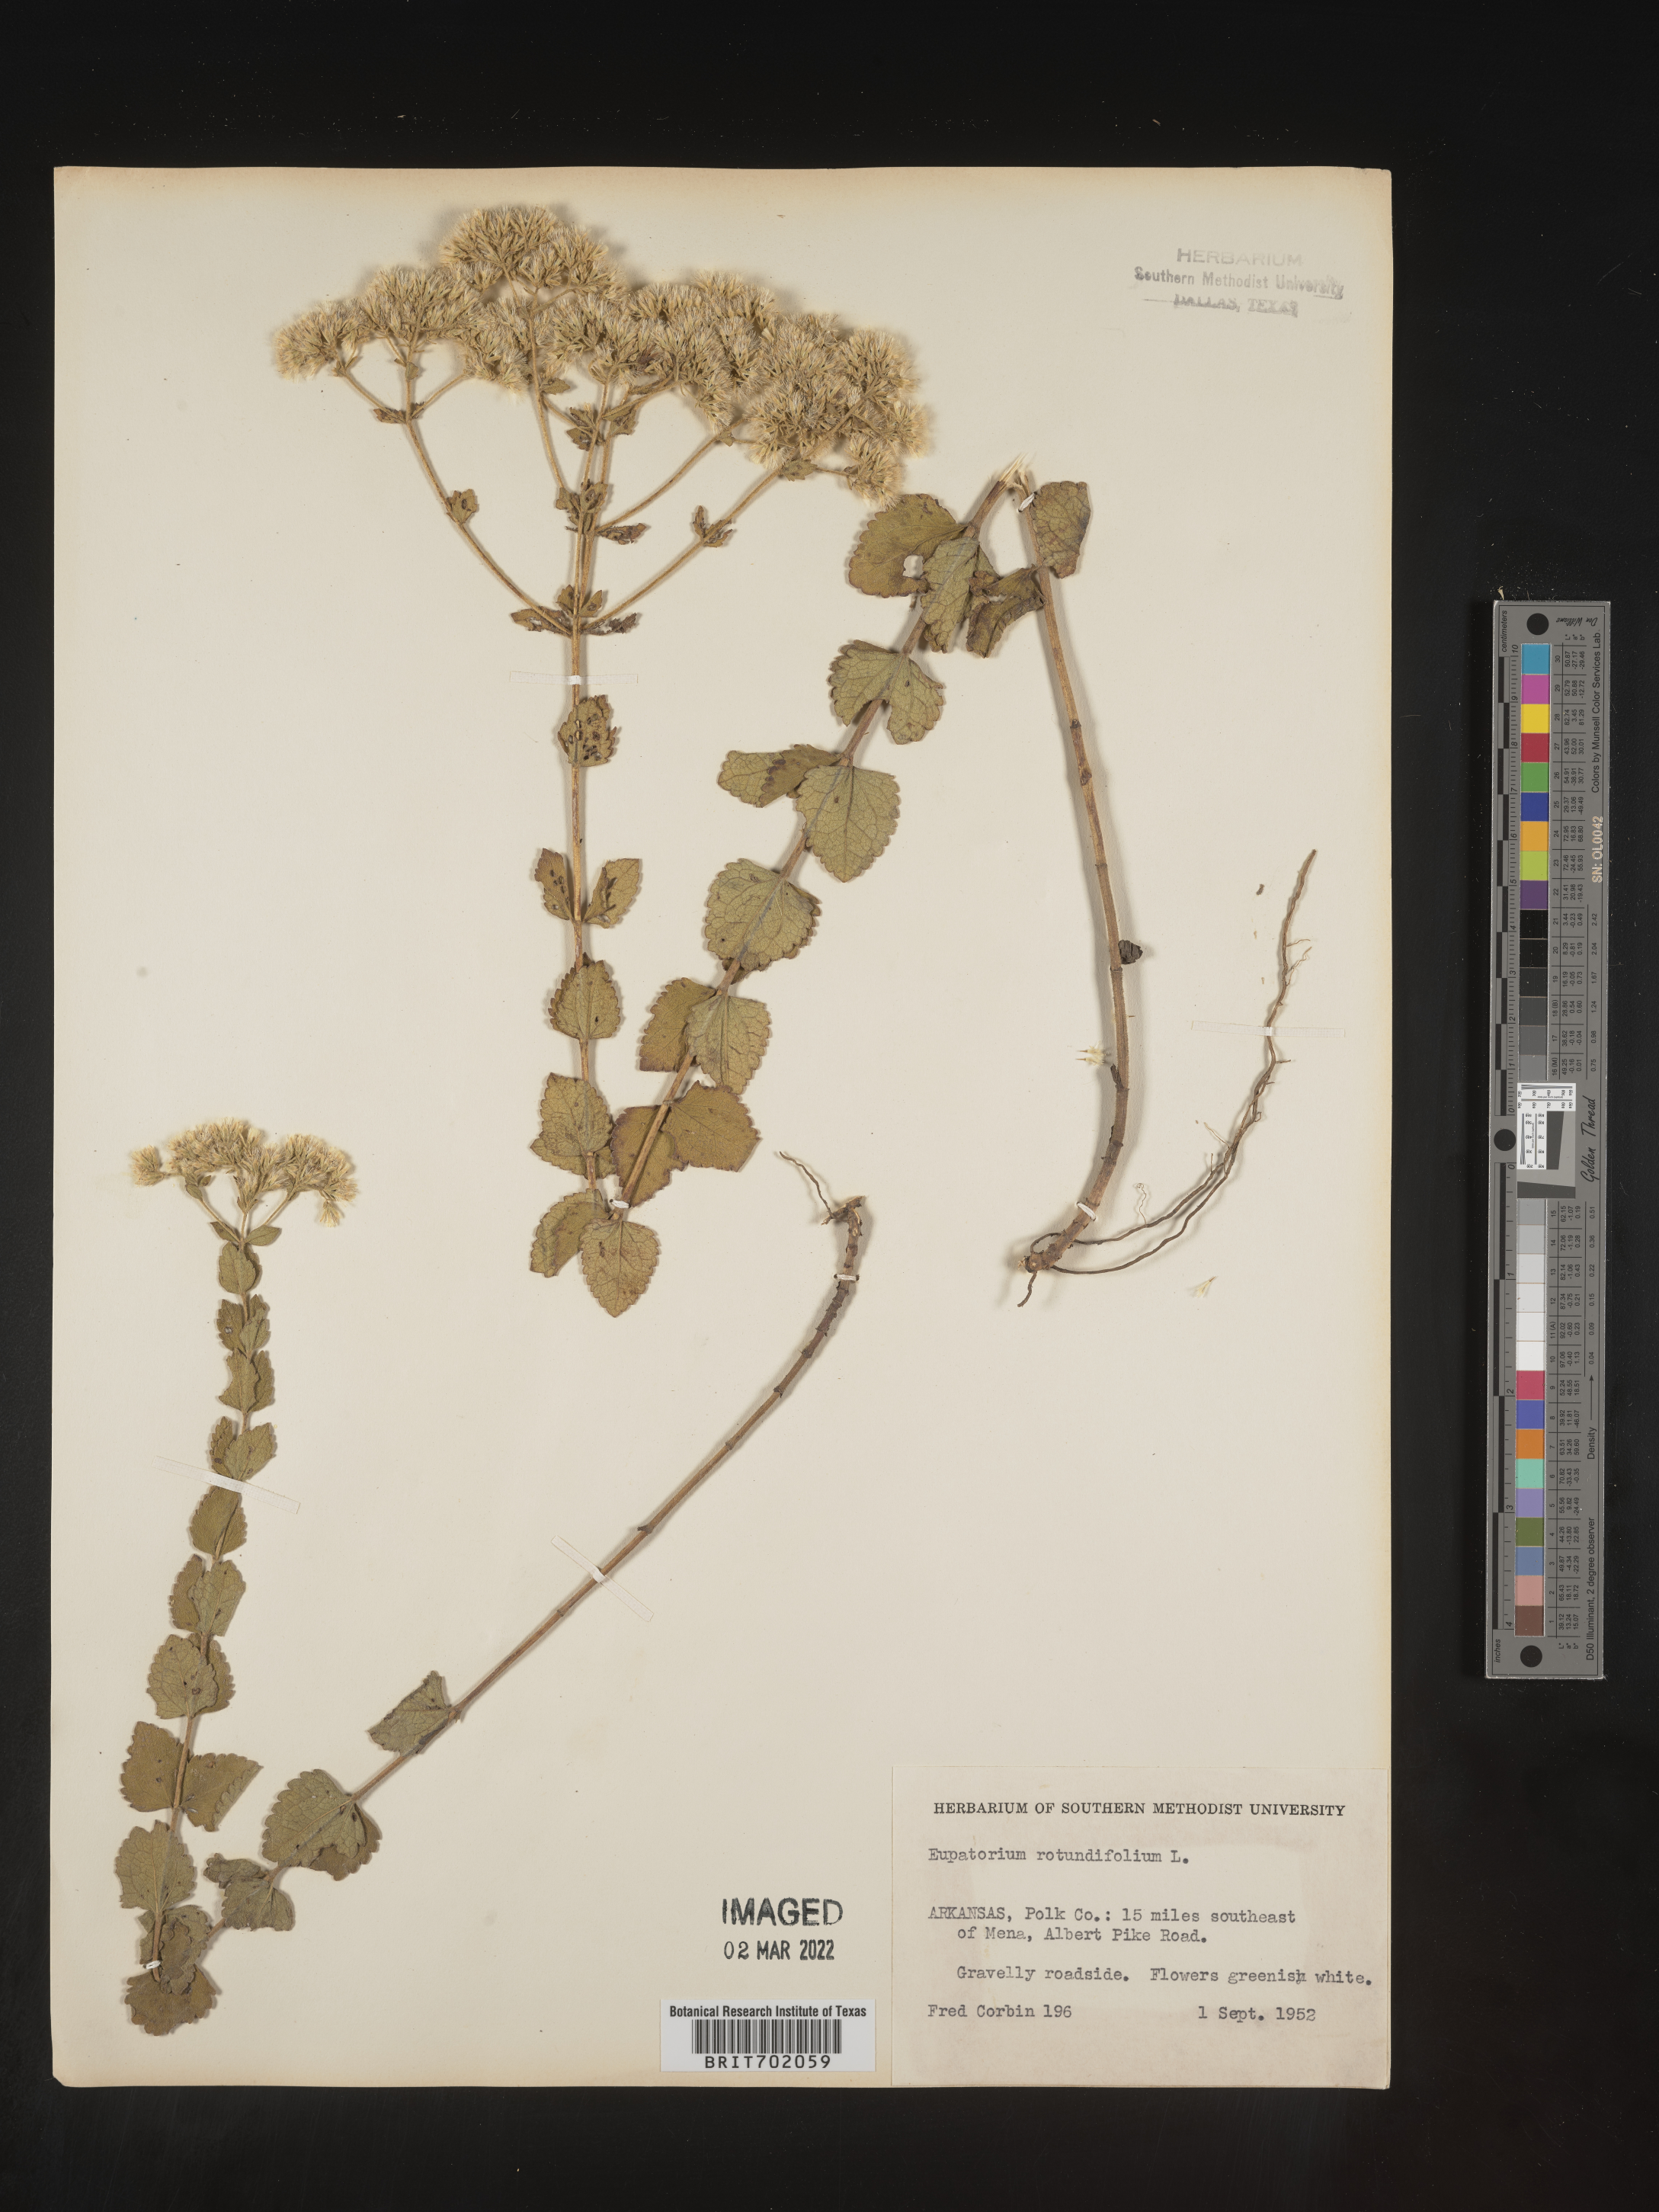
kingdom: Plantae
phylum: Tracheophyta
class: Magnoliopsida
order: Asterales
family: Asteraceae
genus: Eupatorium
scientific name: Eupatorium rotundifolium
